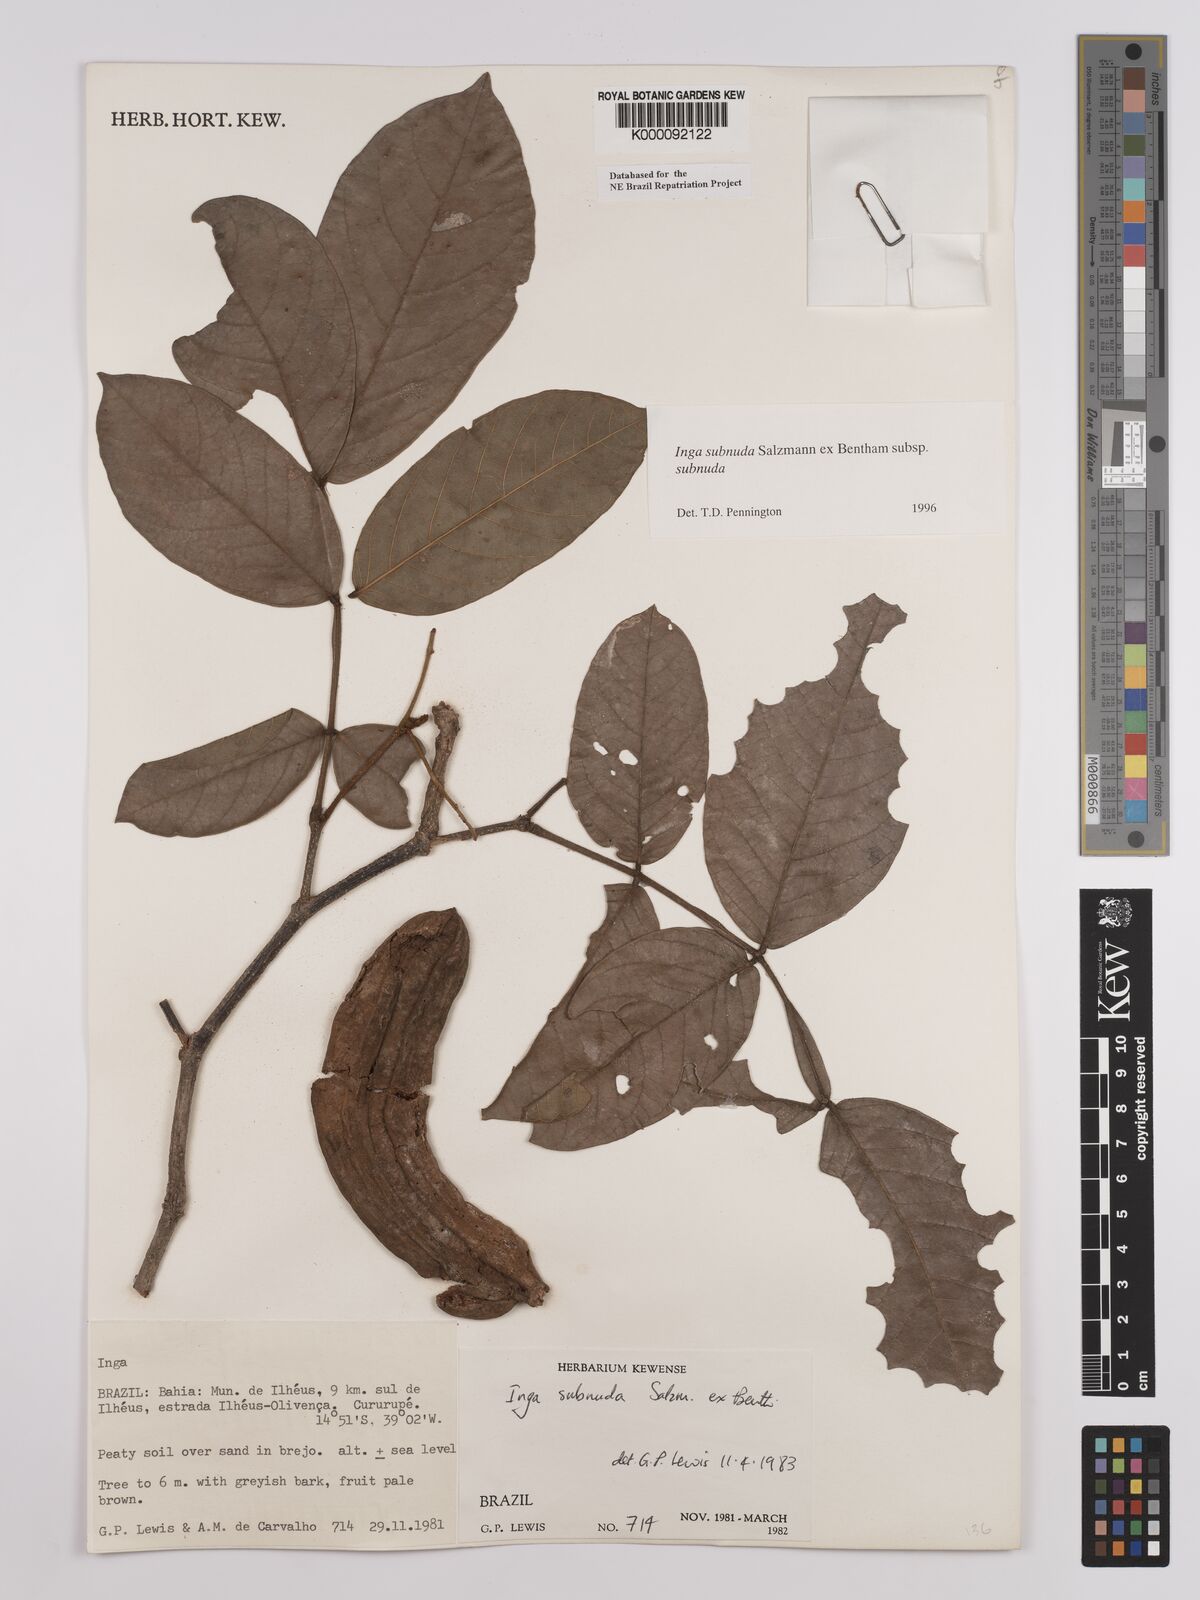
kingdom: Plantae
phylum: Tracheophyta
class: Magnoliopsida
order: Fabales
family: Fabaceae
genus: Inga
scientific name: Inga subnuda
